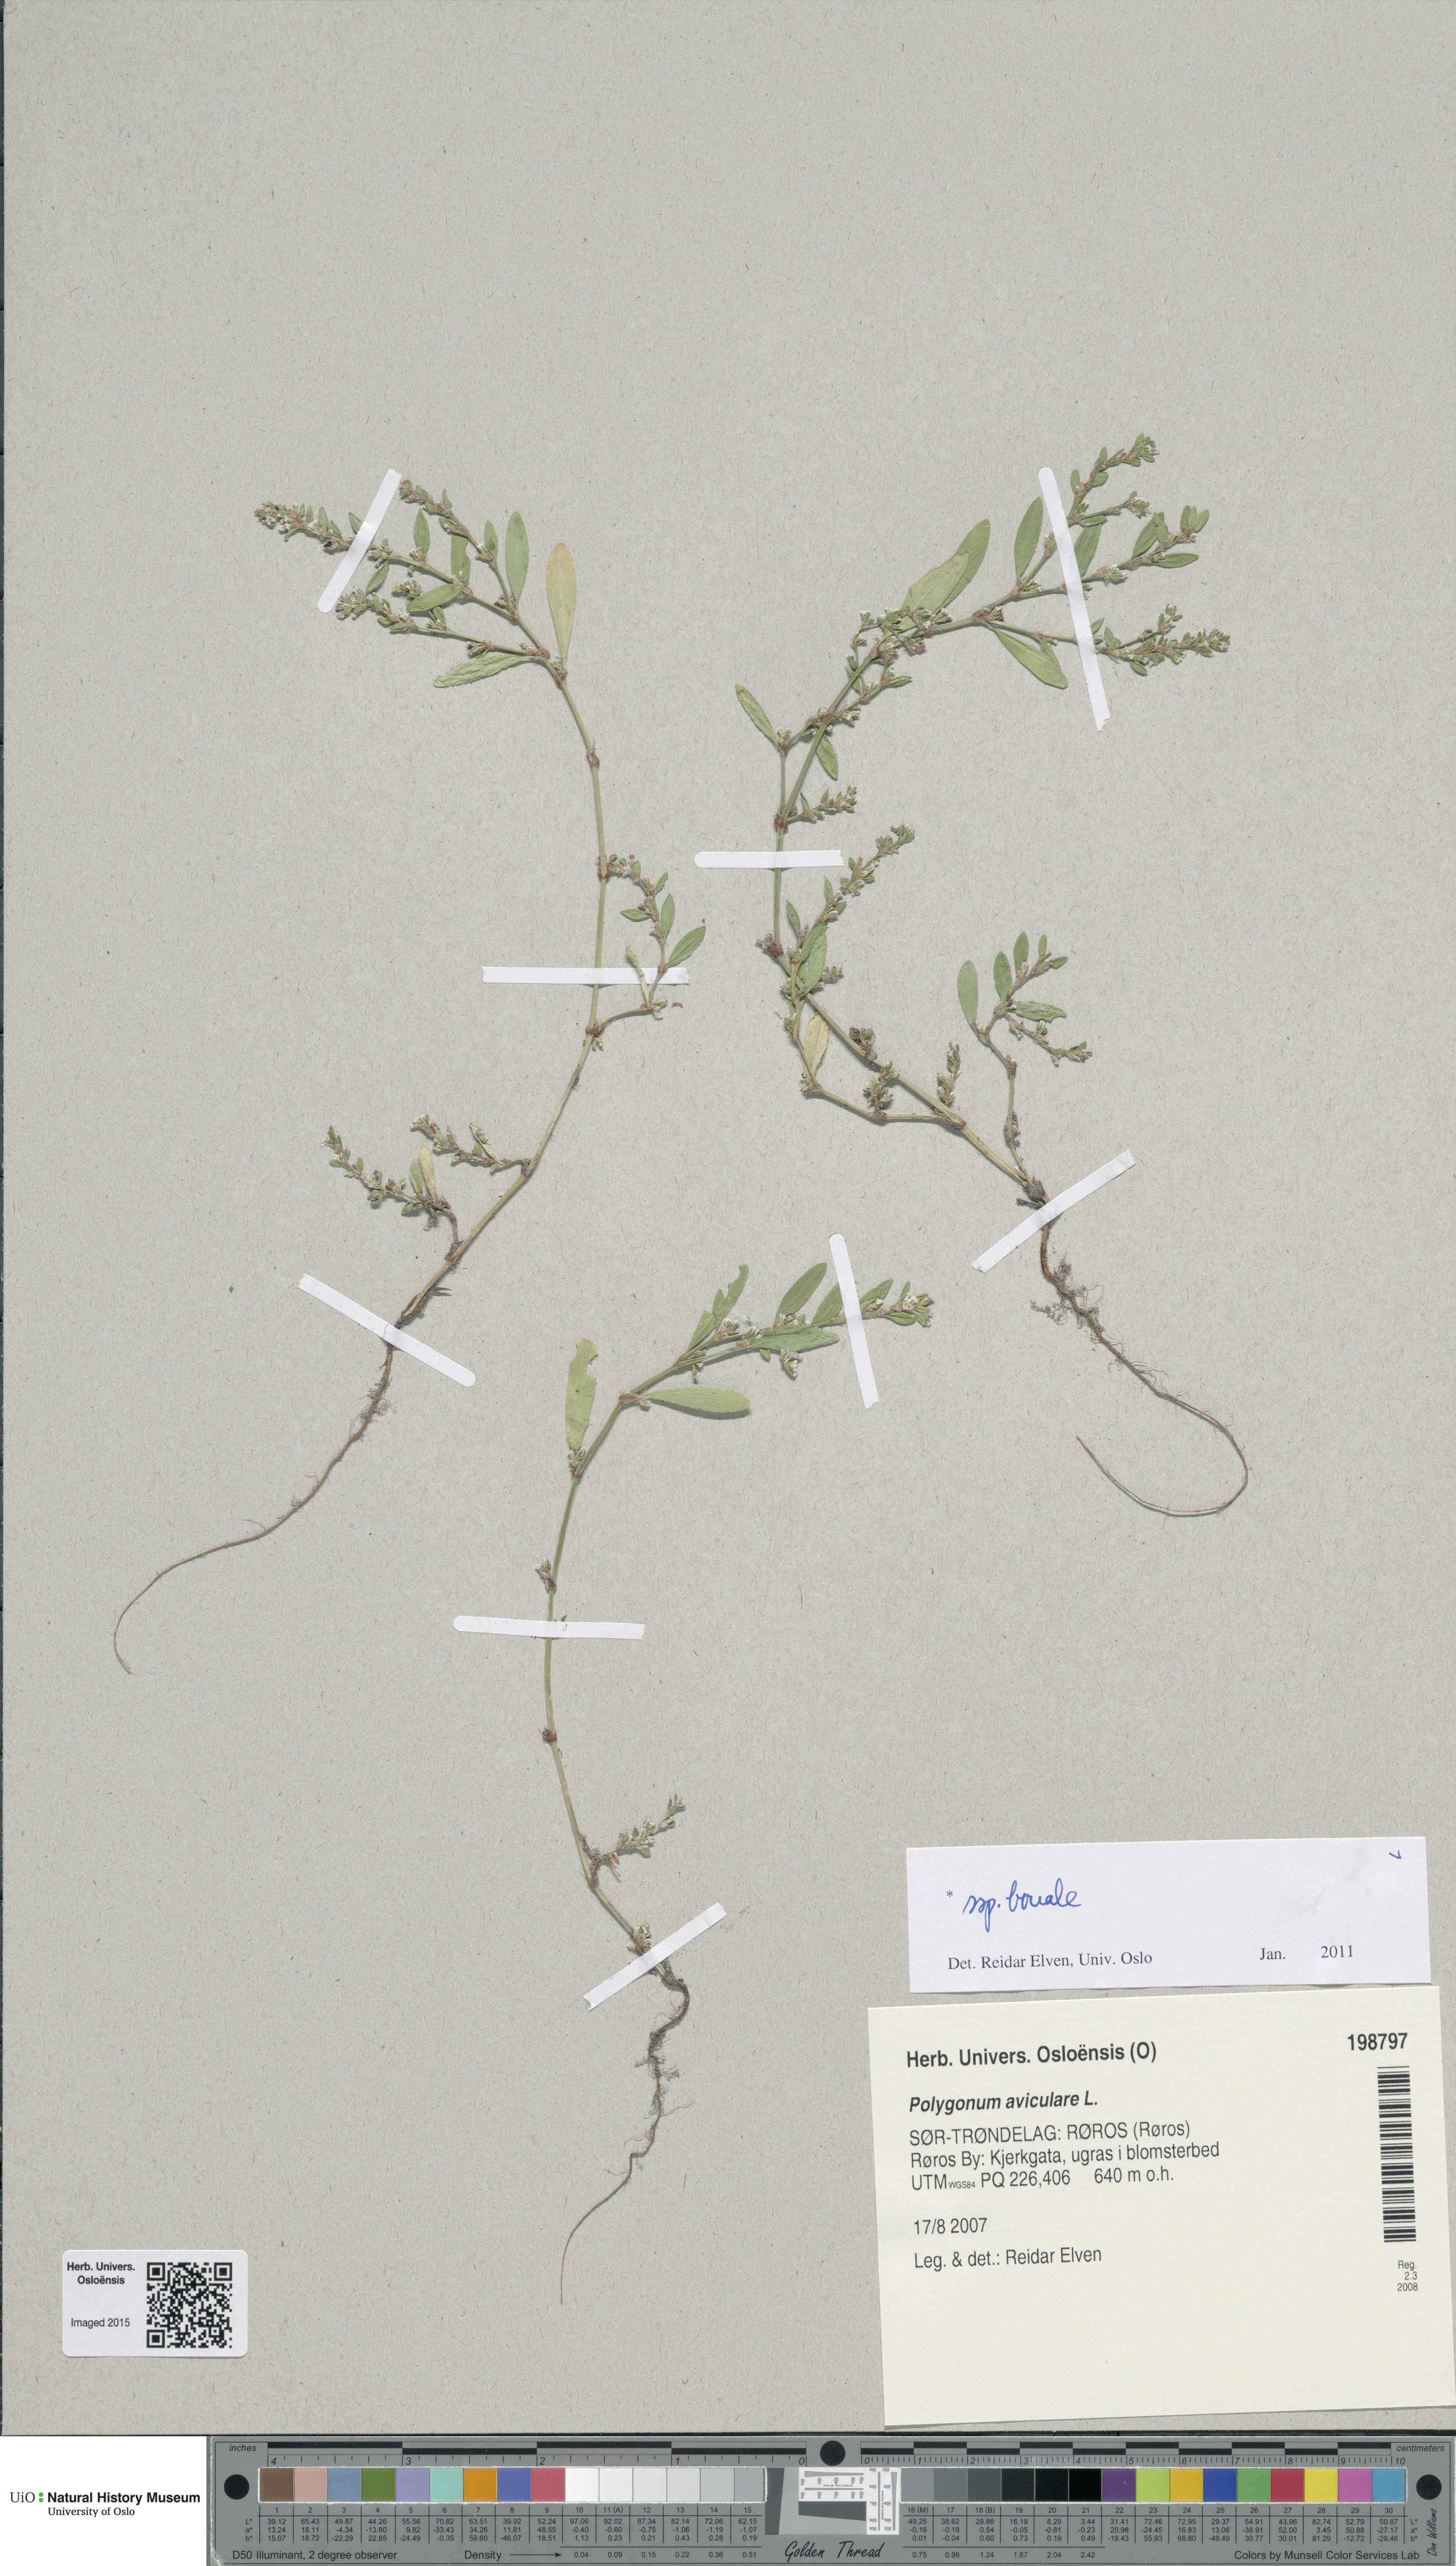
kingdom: Plantae
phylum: Tracheophyta
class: Magnoliopsida
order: Caryophyllales
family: Polygonaceae
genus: Polygonum
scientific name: Polygonum boreale
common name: Northern knotgrass
